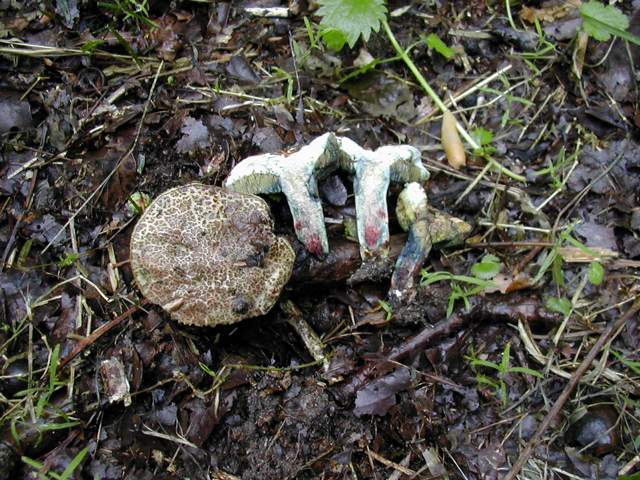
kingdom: Fungi
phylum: Basidiomycota
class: Agaricomycetes
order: Boletales
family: Boletaceae
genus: Xerocomellus
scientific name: Xerocomellus cisalpinus
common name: finsprukken rørhat
